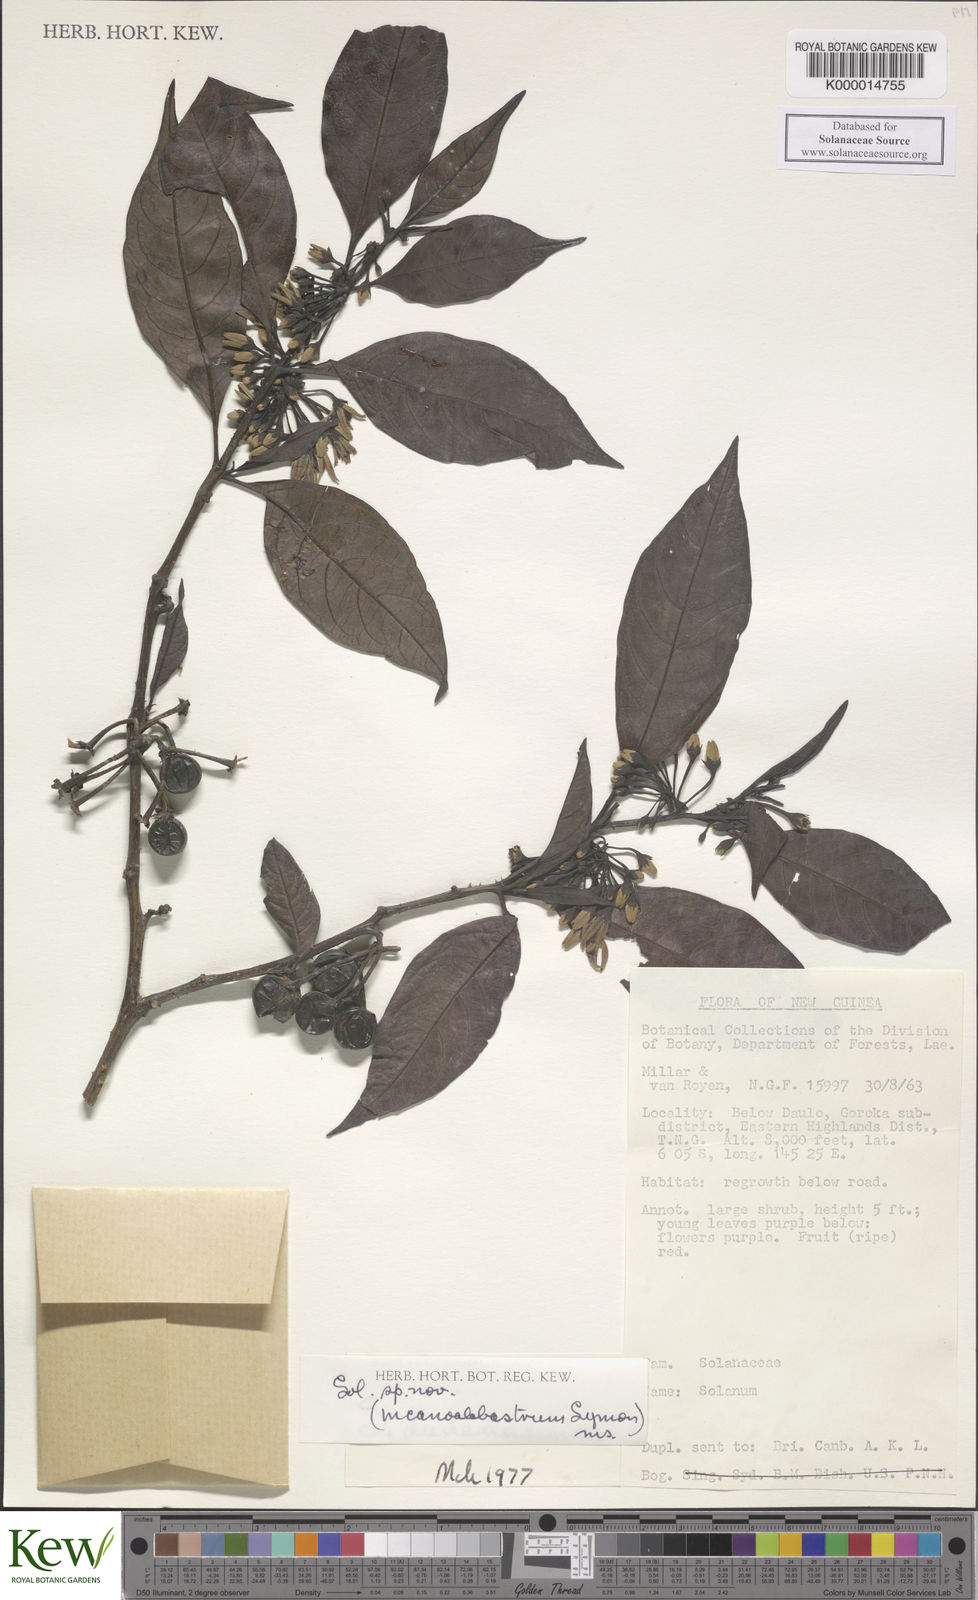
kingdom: Plantae
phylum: Tracheophyta
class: Magnoliopsida
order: Solanales
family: Solanaceae
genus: Solanum
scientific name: Solanum incanoalabastrum
